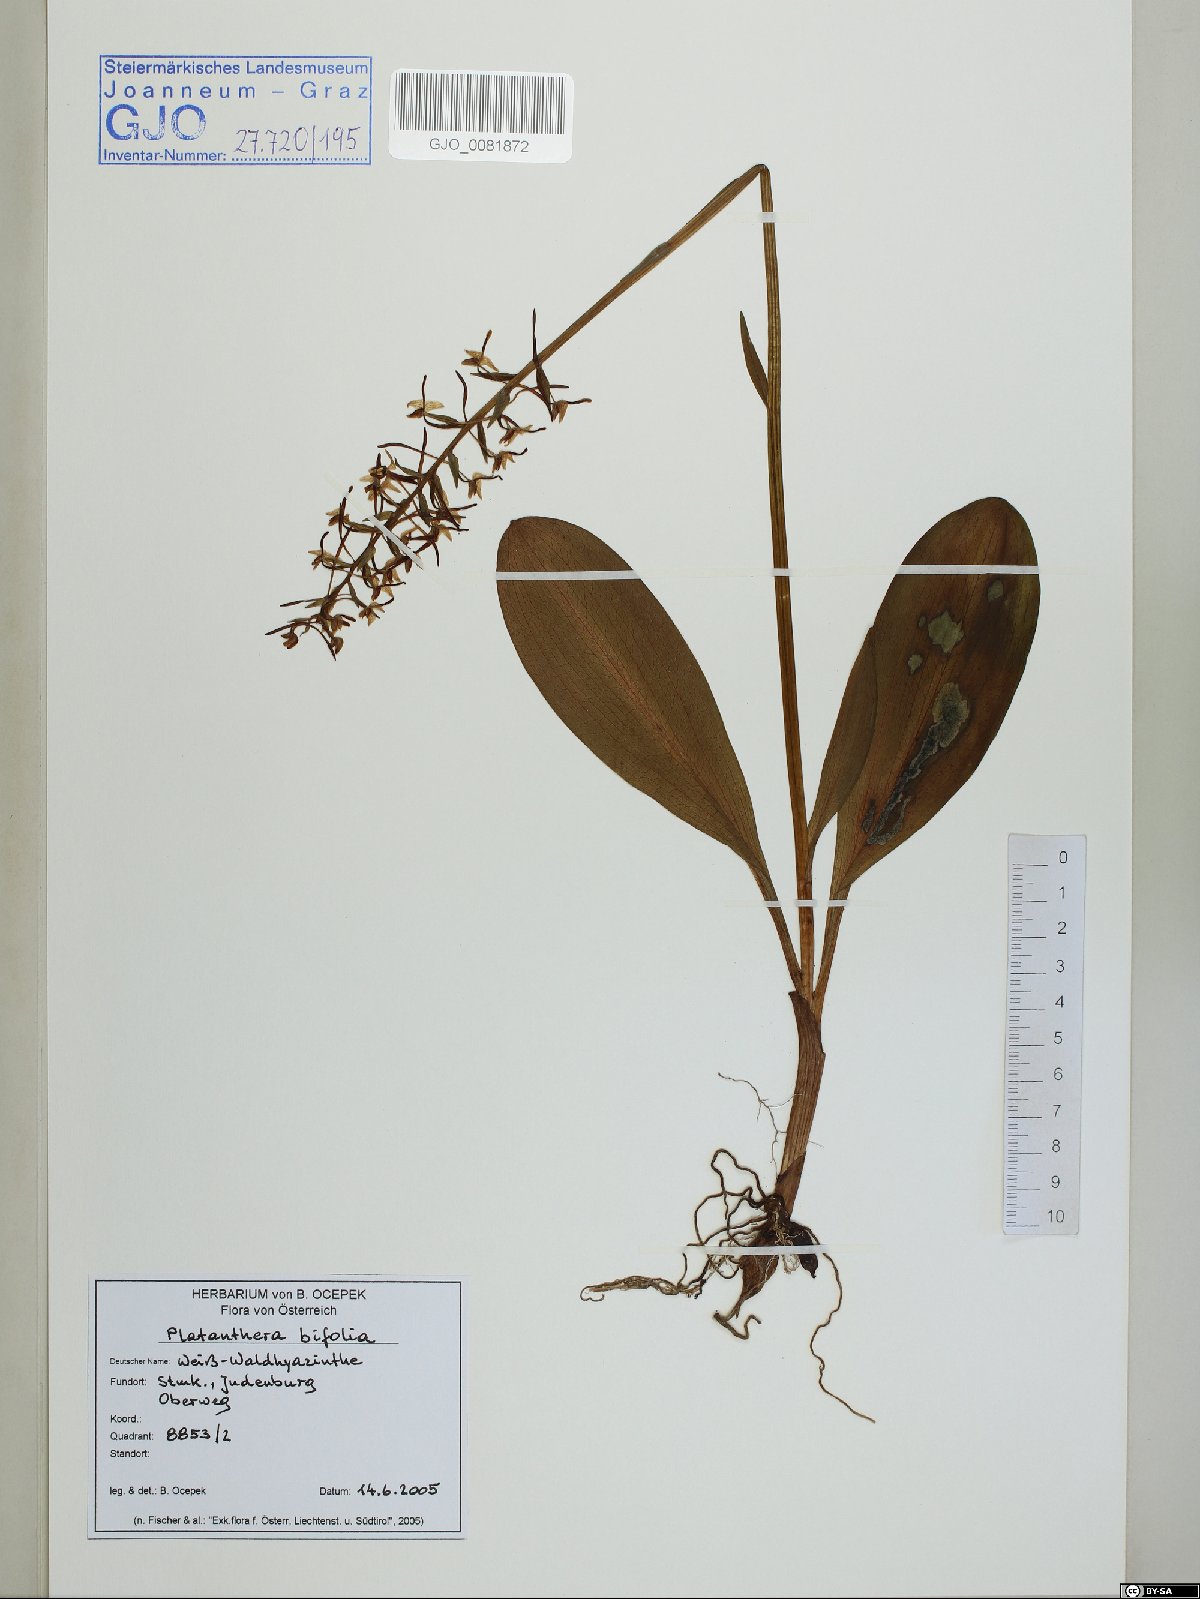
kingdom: Plantae
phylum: Tracheophyta
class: Liliopsida
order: Asparagales
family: Orchidaceae
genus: Platanthera
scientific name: Platanthera bifolia
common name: Lesser butterfly-orchid
